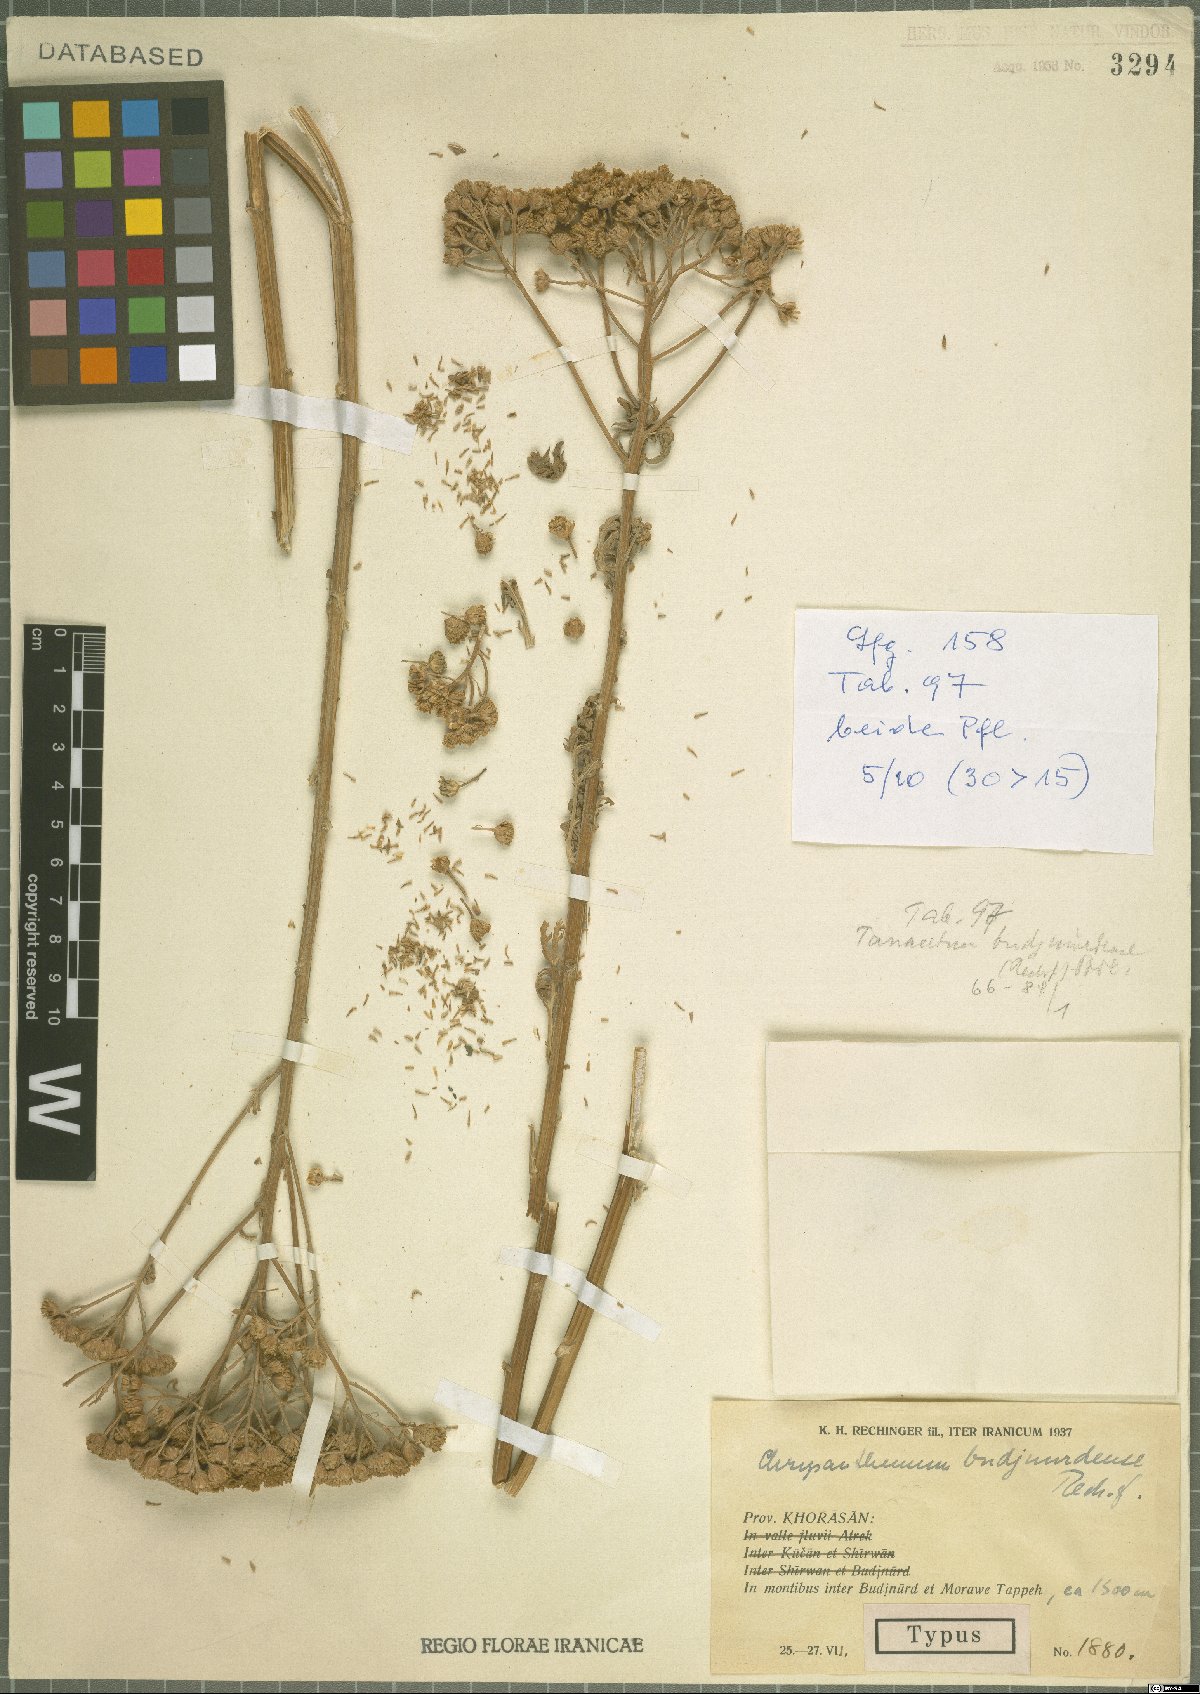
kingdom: Plantae
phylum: Tracheophyta
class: Magnoliopsida
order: Asterales
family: Asteraceae
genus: Tanacetum
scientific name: Tanacetum budjnurdense
